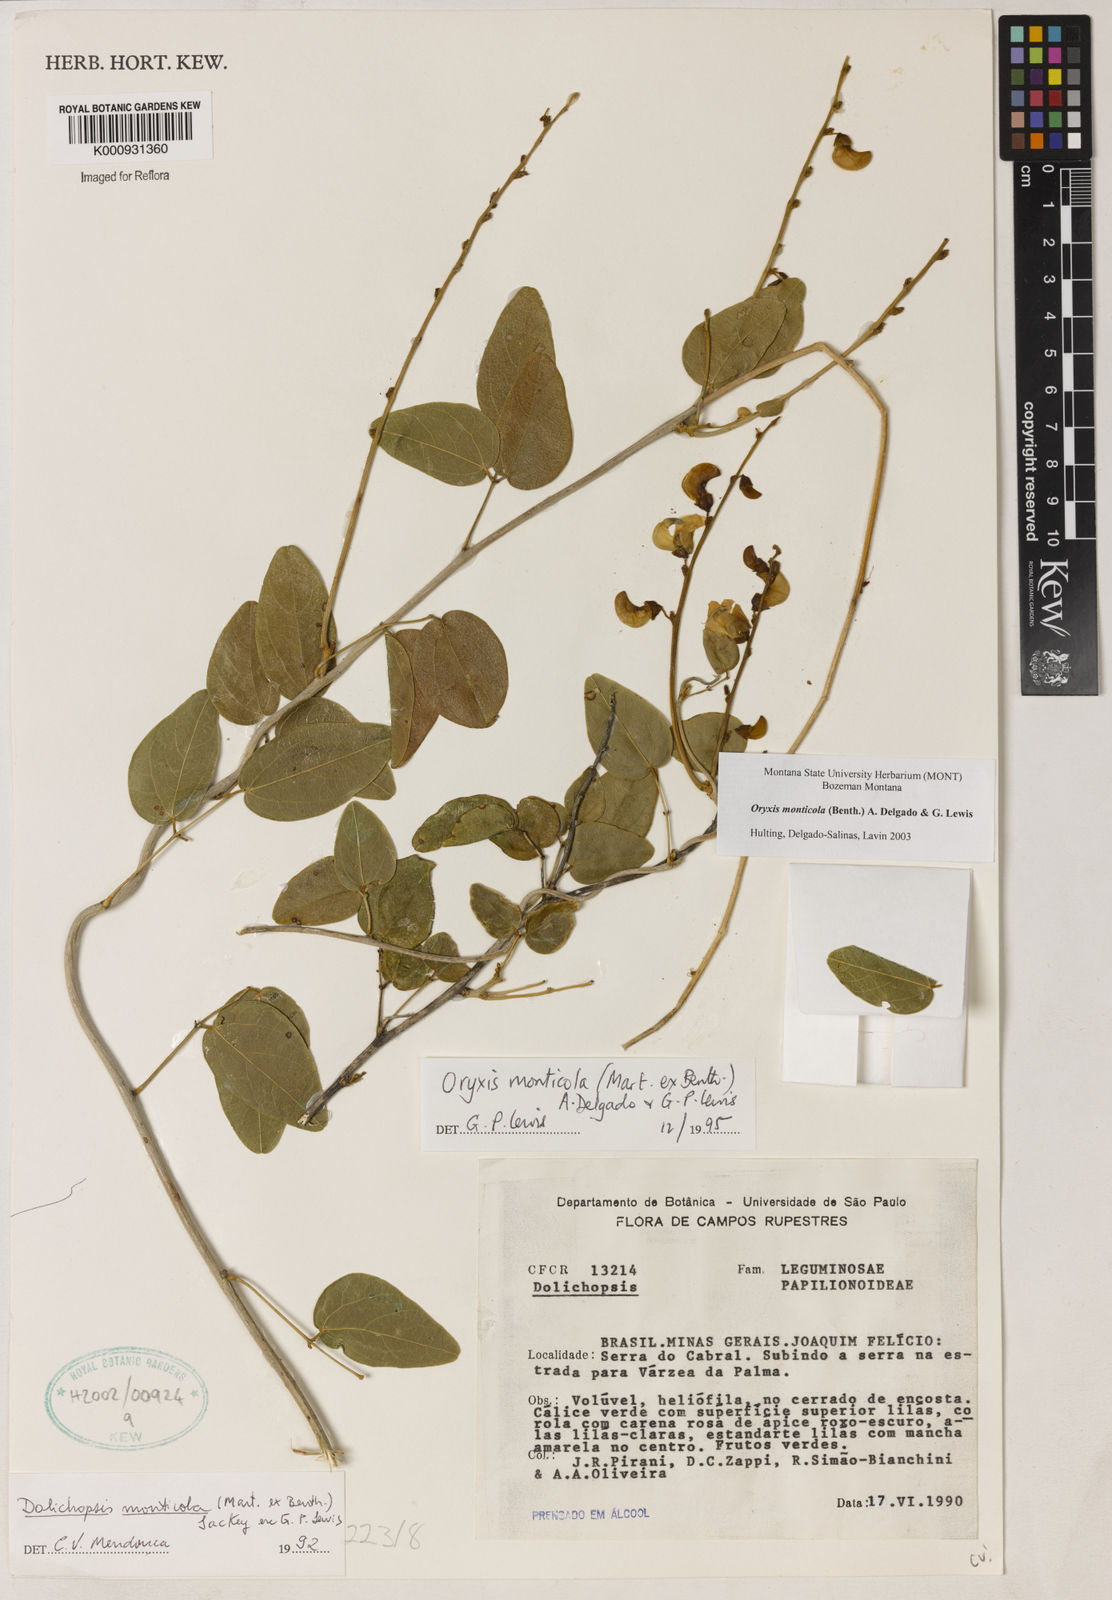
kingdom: Plantae
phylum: Tracheophyta
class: Magnoliopsida
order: Fabales
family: Fabaceae
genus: Dolichopsis
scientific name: Dolichopsis monticola
